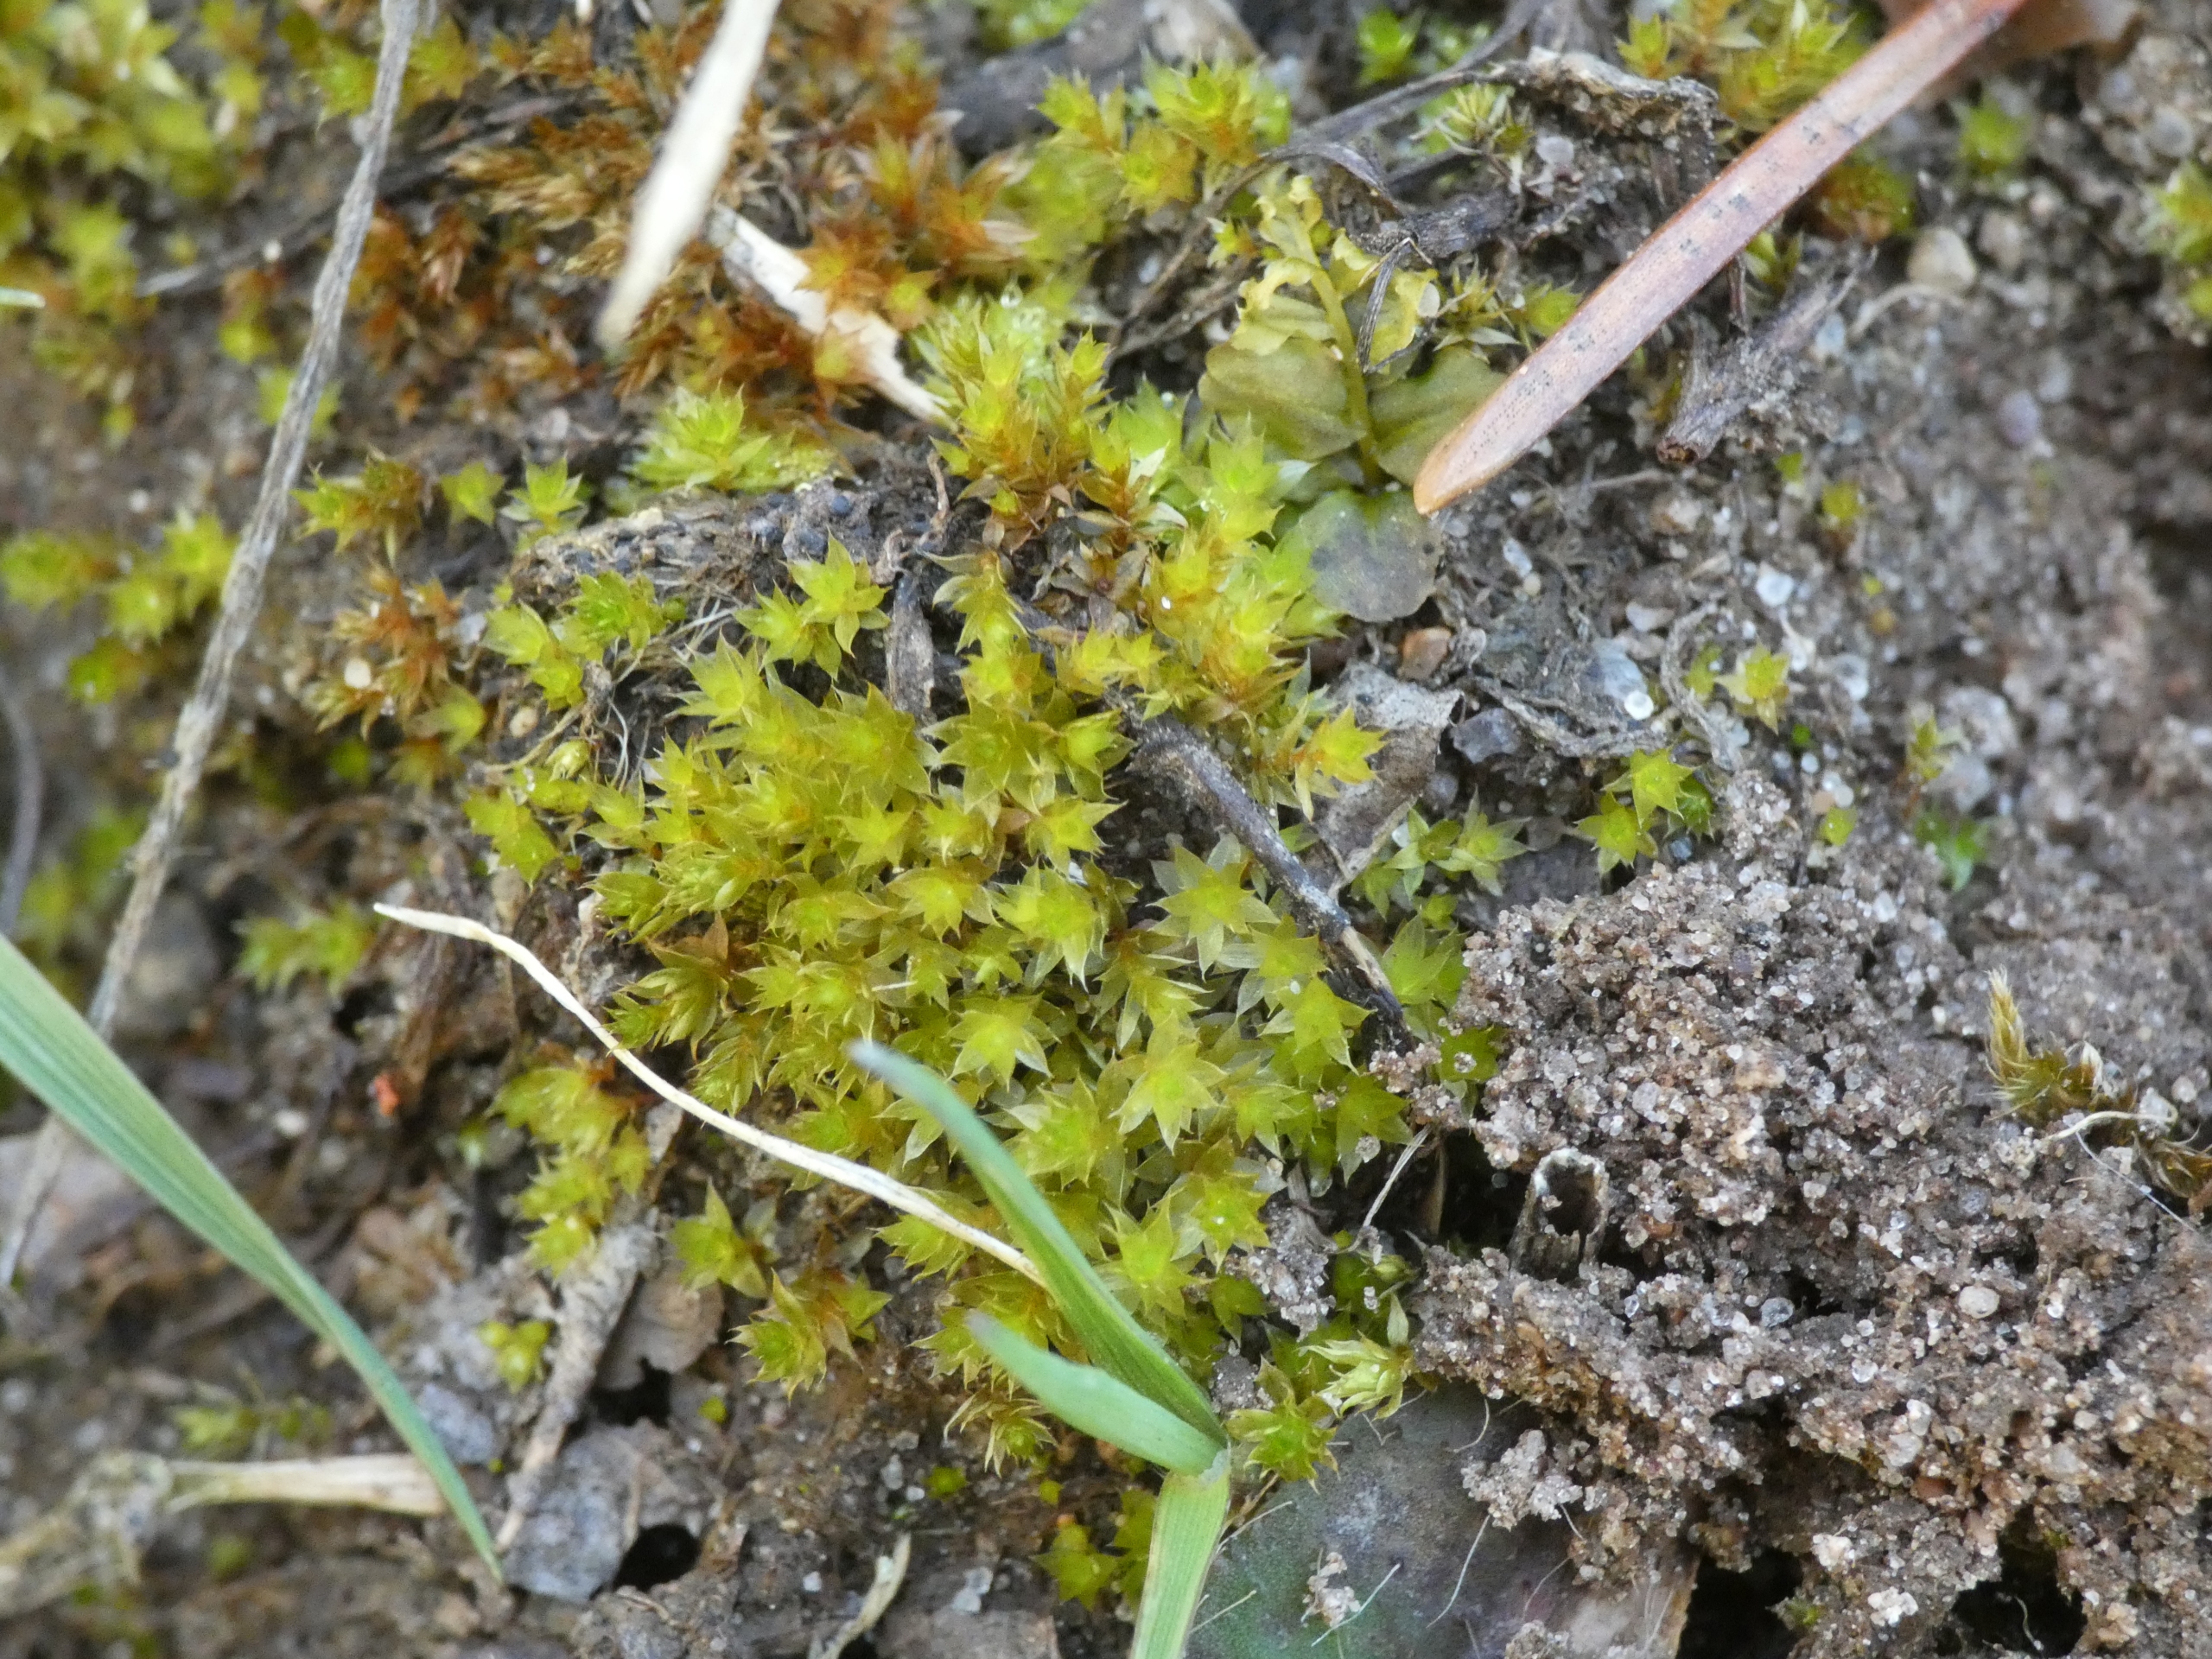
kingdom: Plantae
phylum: Bryophyta
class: Bryopsida
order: Bryales
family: Bryaceae
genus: Rosulabryum
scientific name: Rosulabryum rubens
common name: Mark-bryum
